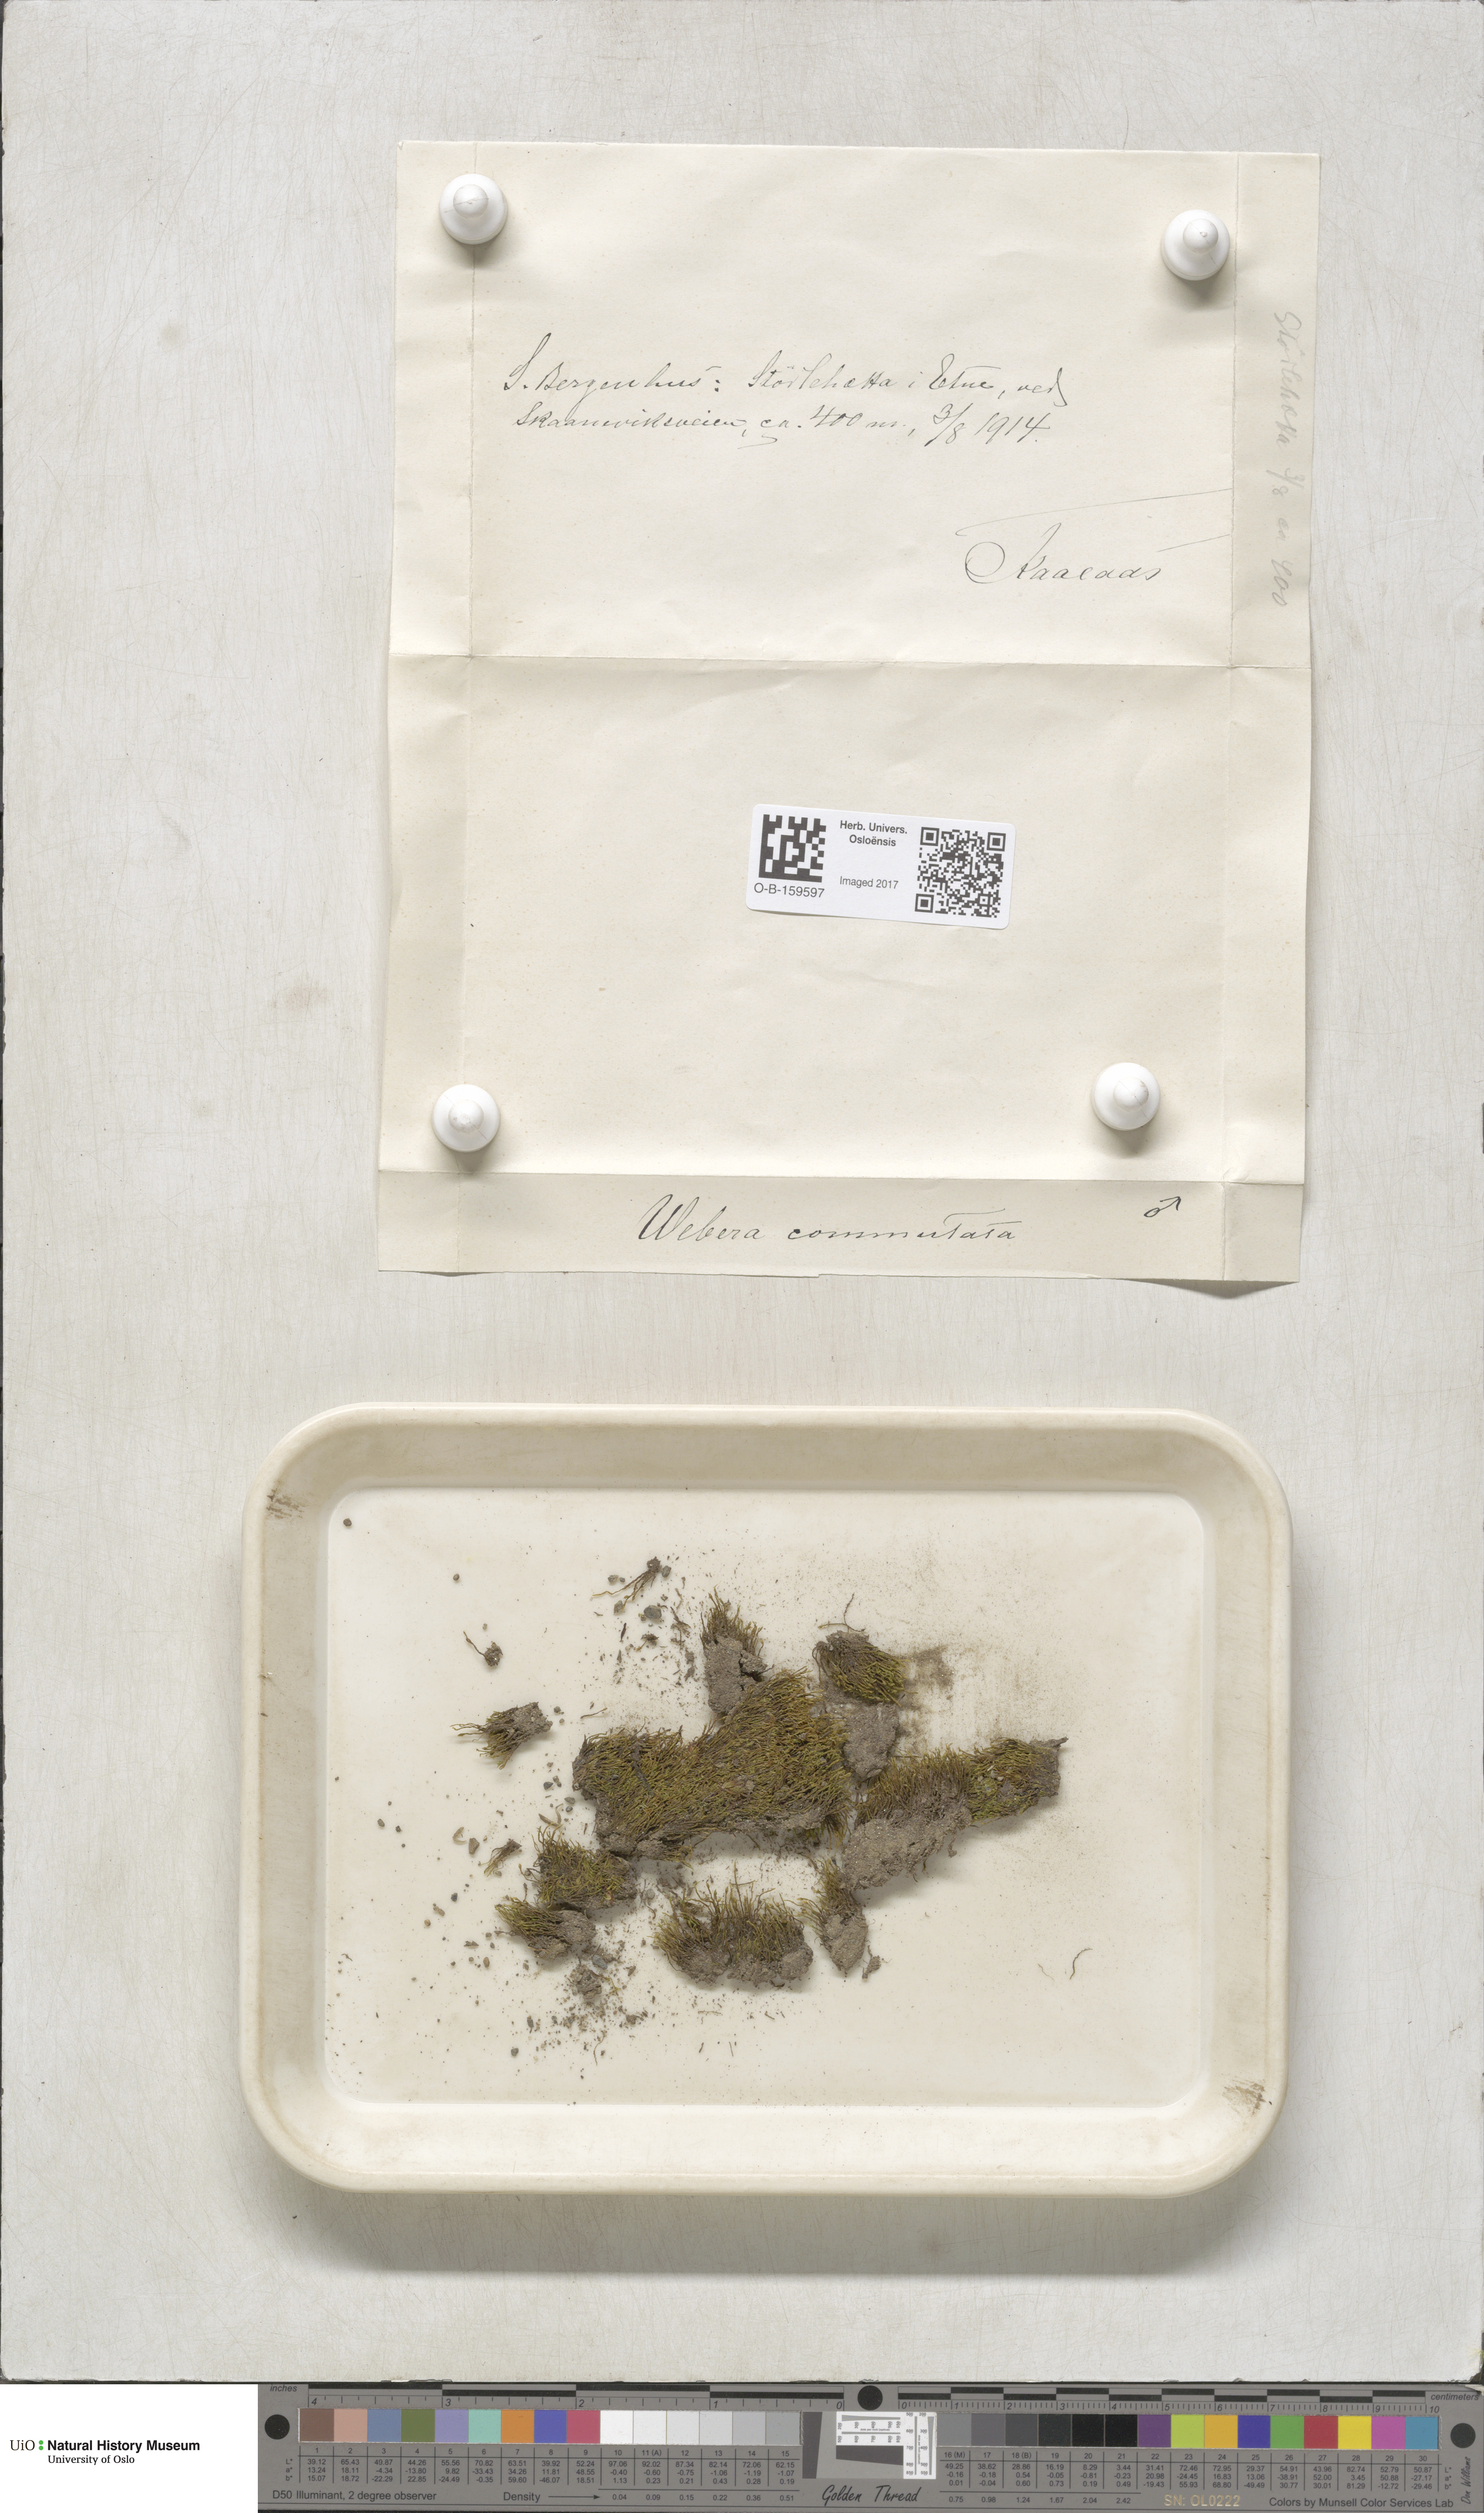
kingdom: Plantae
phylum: Bryophyta
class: Bryopsida
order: Bryales
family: Mniaceae
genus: Pohlia
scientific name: Pohlia drummondii
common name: Drummond's nodding moss
